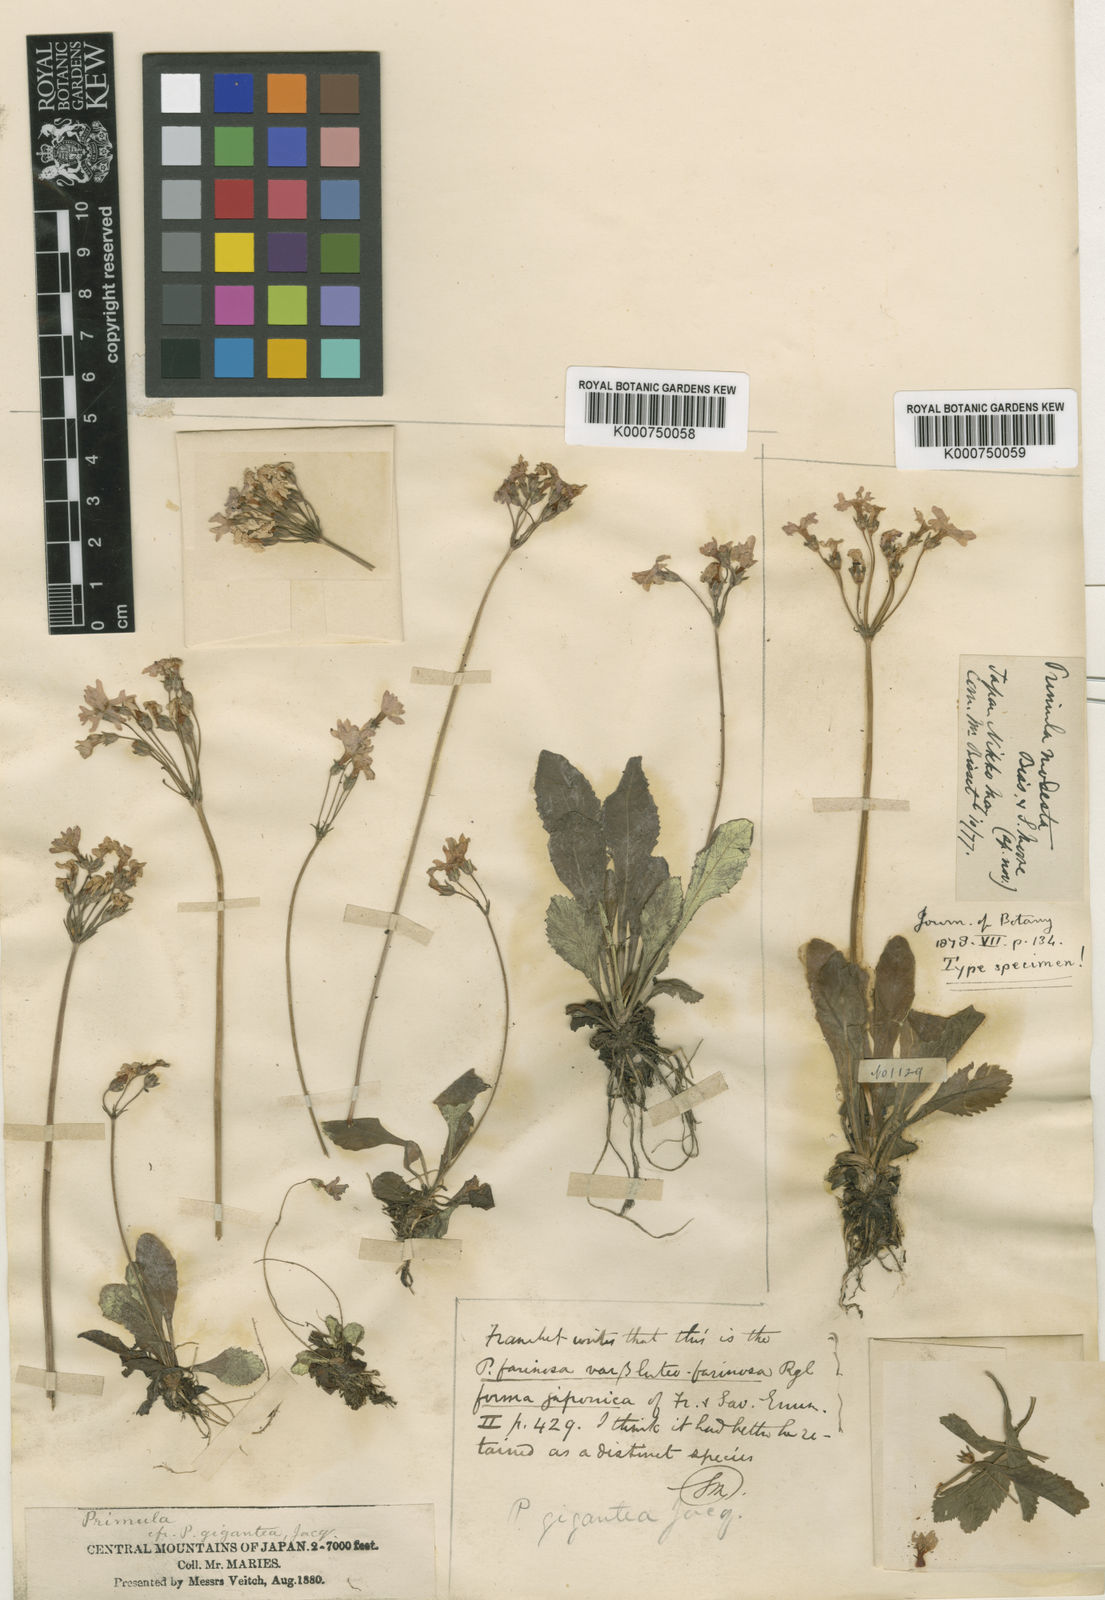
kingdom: Plantae
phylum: Tracheophyta
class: Magnoliopsida
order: Ericales
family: Primulaceae
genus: Primula
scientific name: Primula modesta
